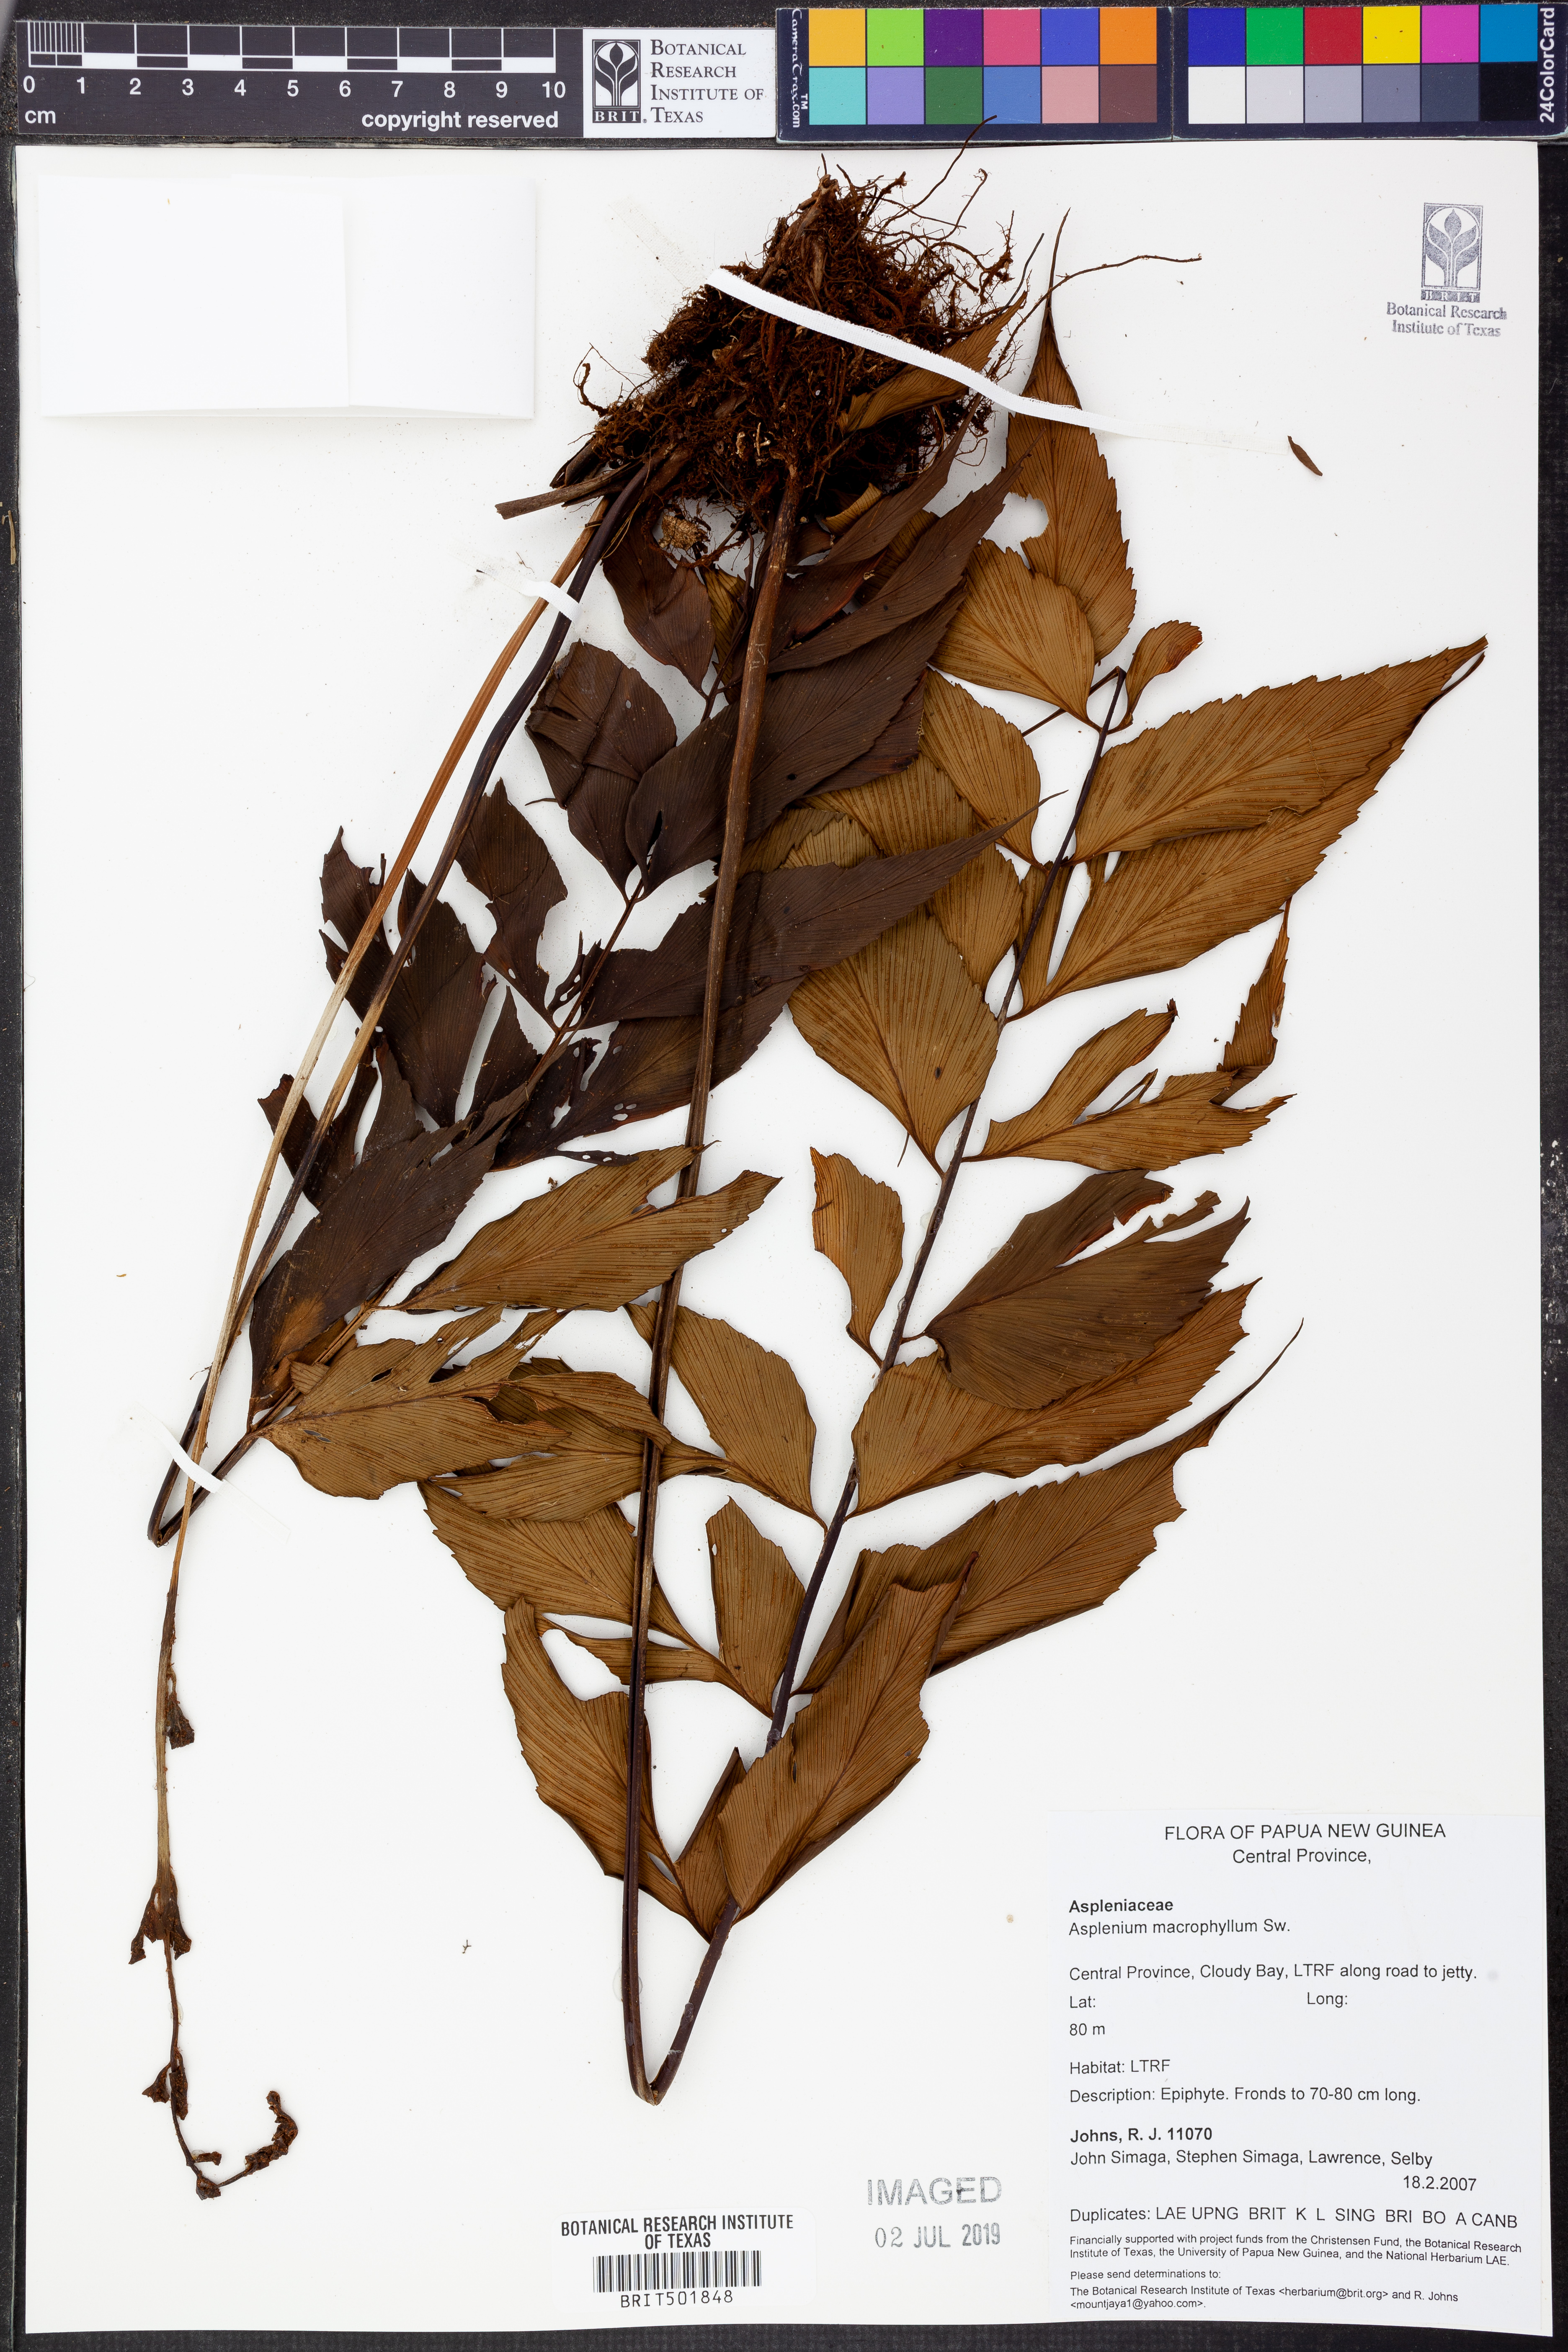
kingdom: Plantae
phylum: Tracheophyta
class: Polypodiopsida
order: Polypodiales
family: Aspleniaceae
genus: Asplenium
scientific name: Asplenium macrophyllum
